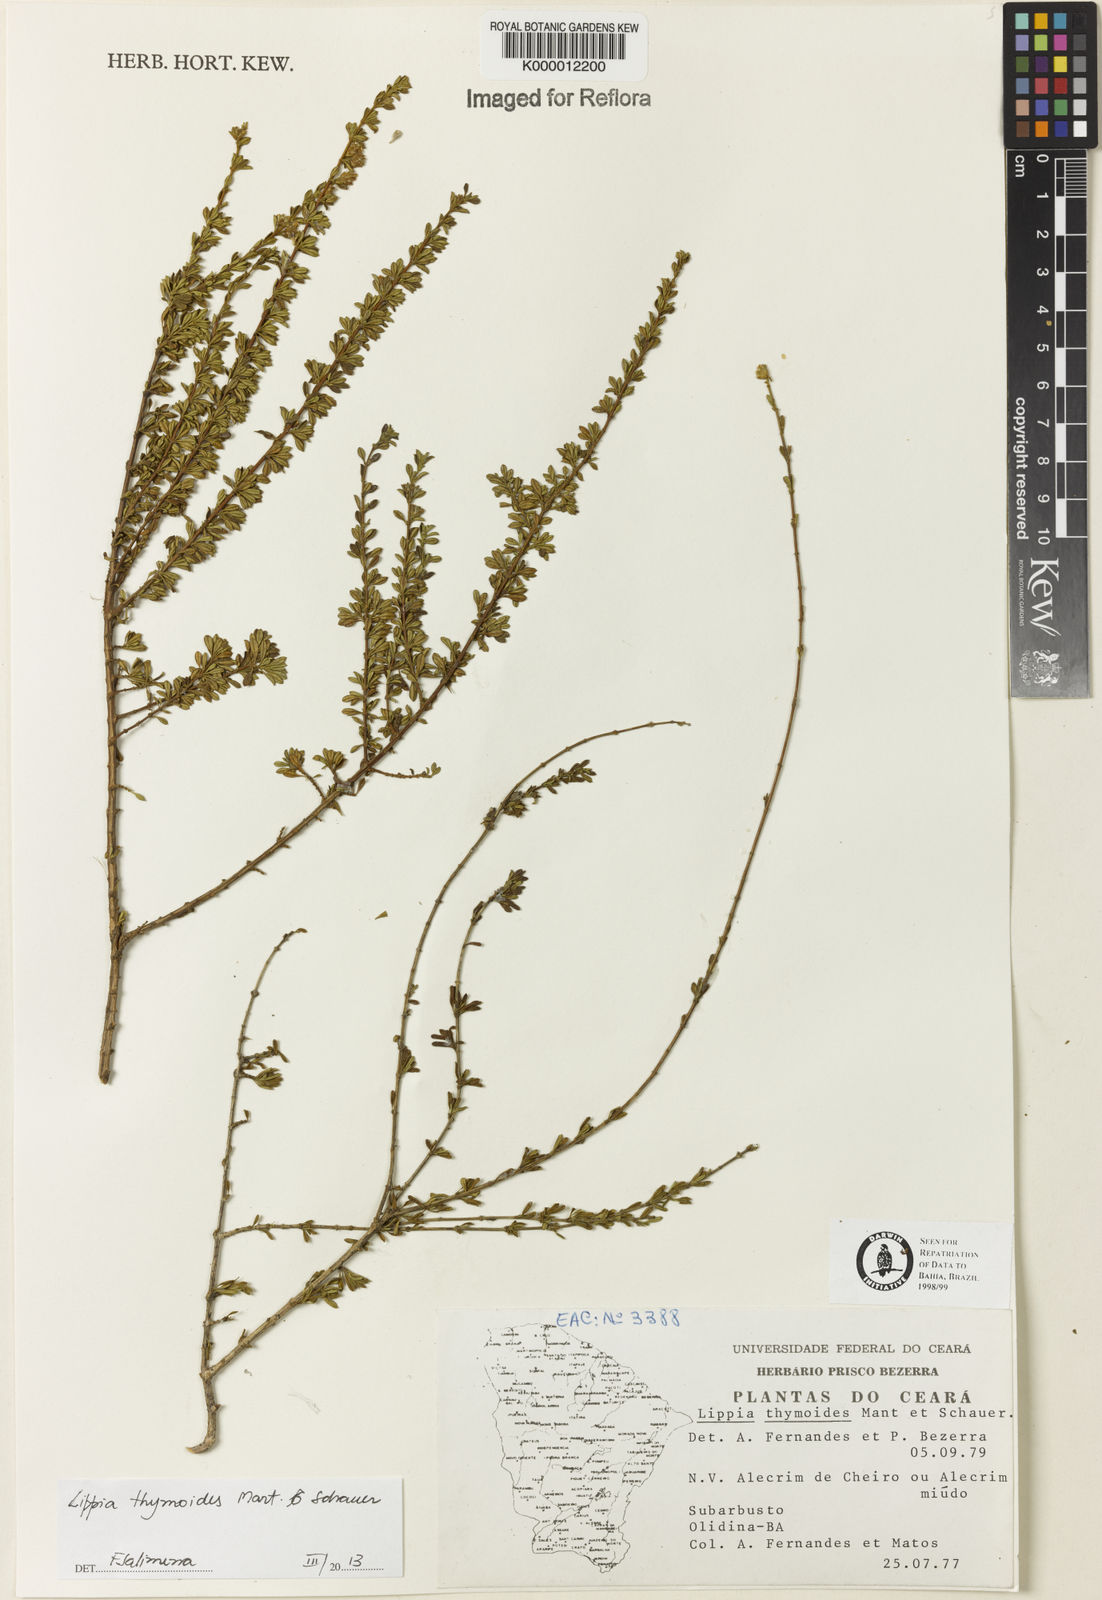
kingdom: Plantae
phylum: Tracheophyta
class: Magnoliopsida
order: Lamiales
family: Verbenaceae
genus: Lippia
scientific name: Lippia thymoides
